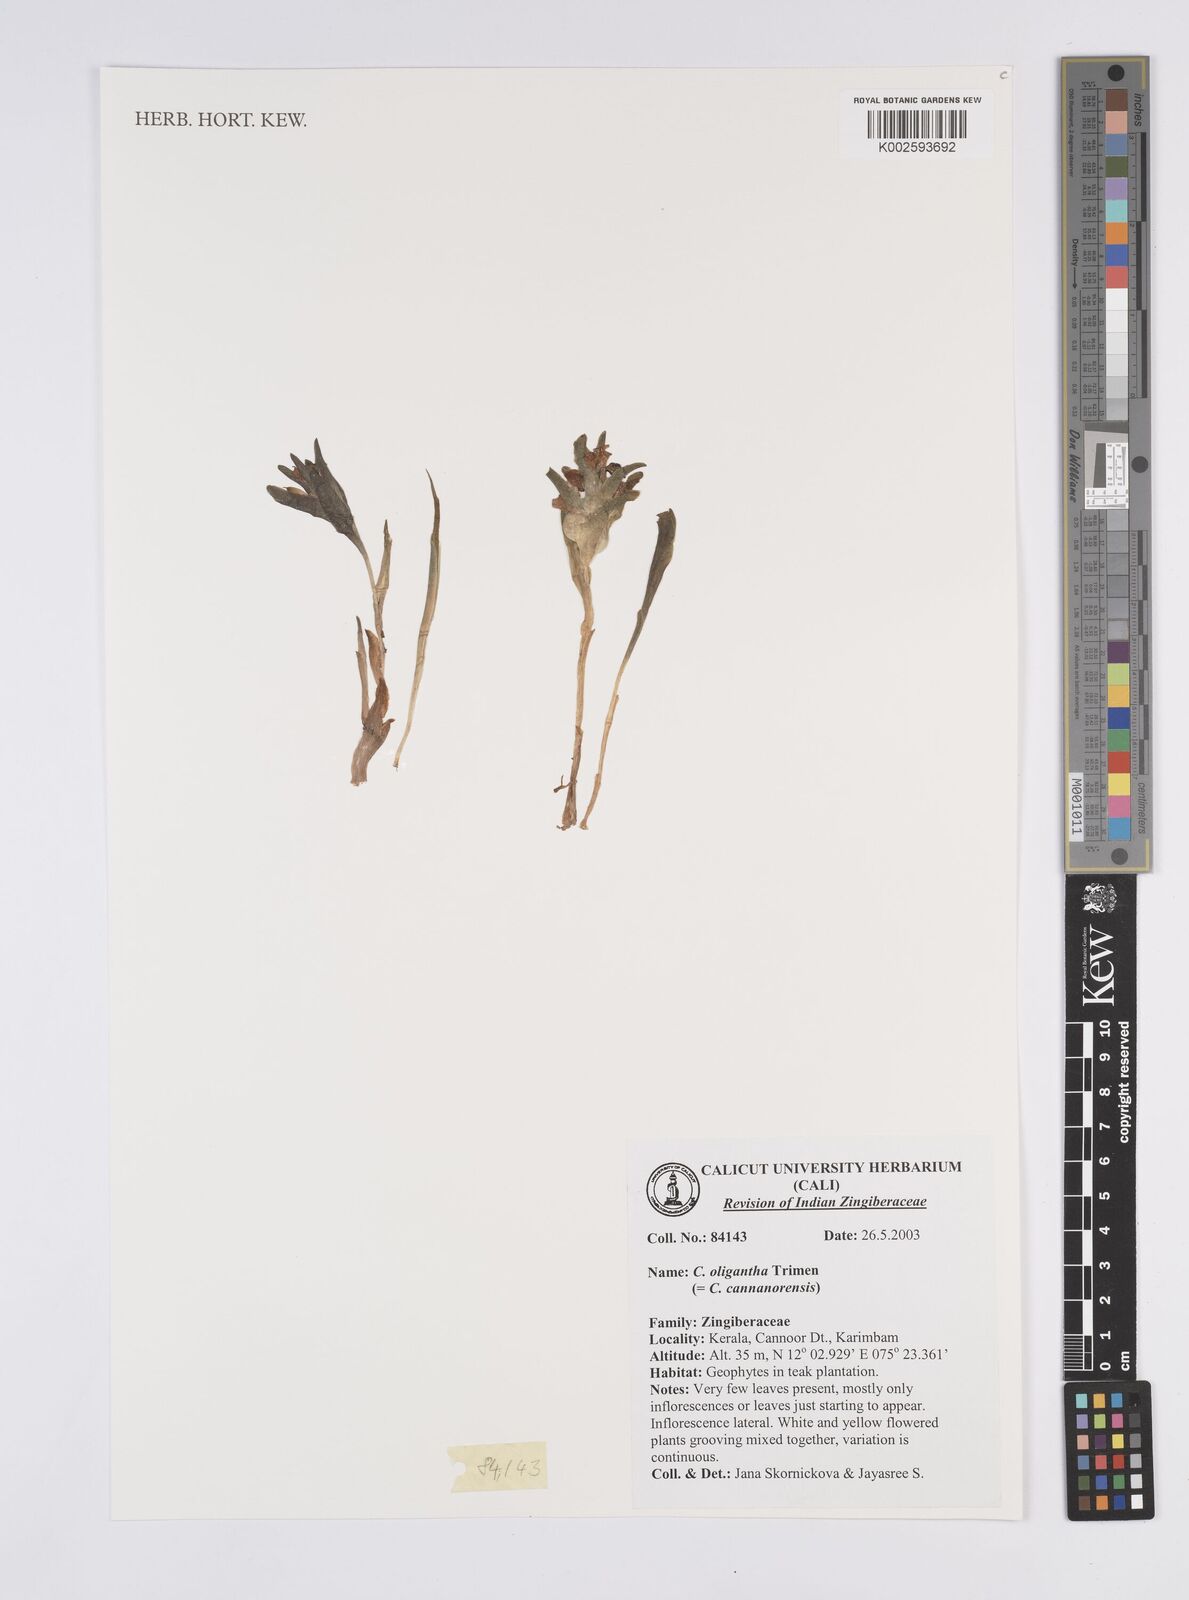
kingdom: Plantae
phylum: Tracheophyta
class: Liliopsida
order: Zingiberales
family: Zingiberaceae
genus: Curcuma
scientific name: Curcuma oligantha
